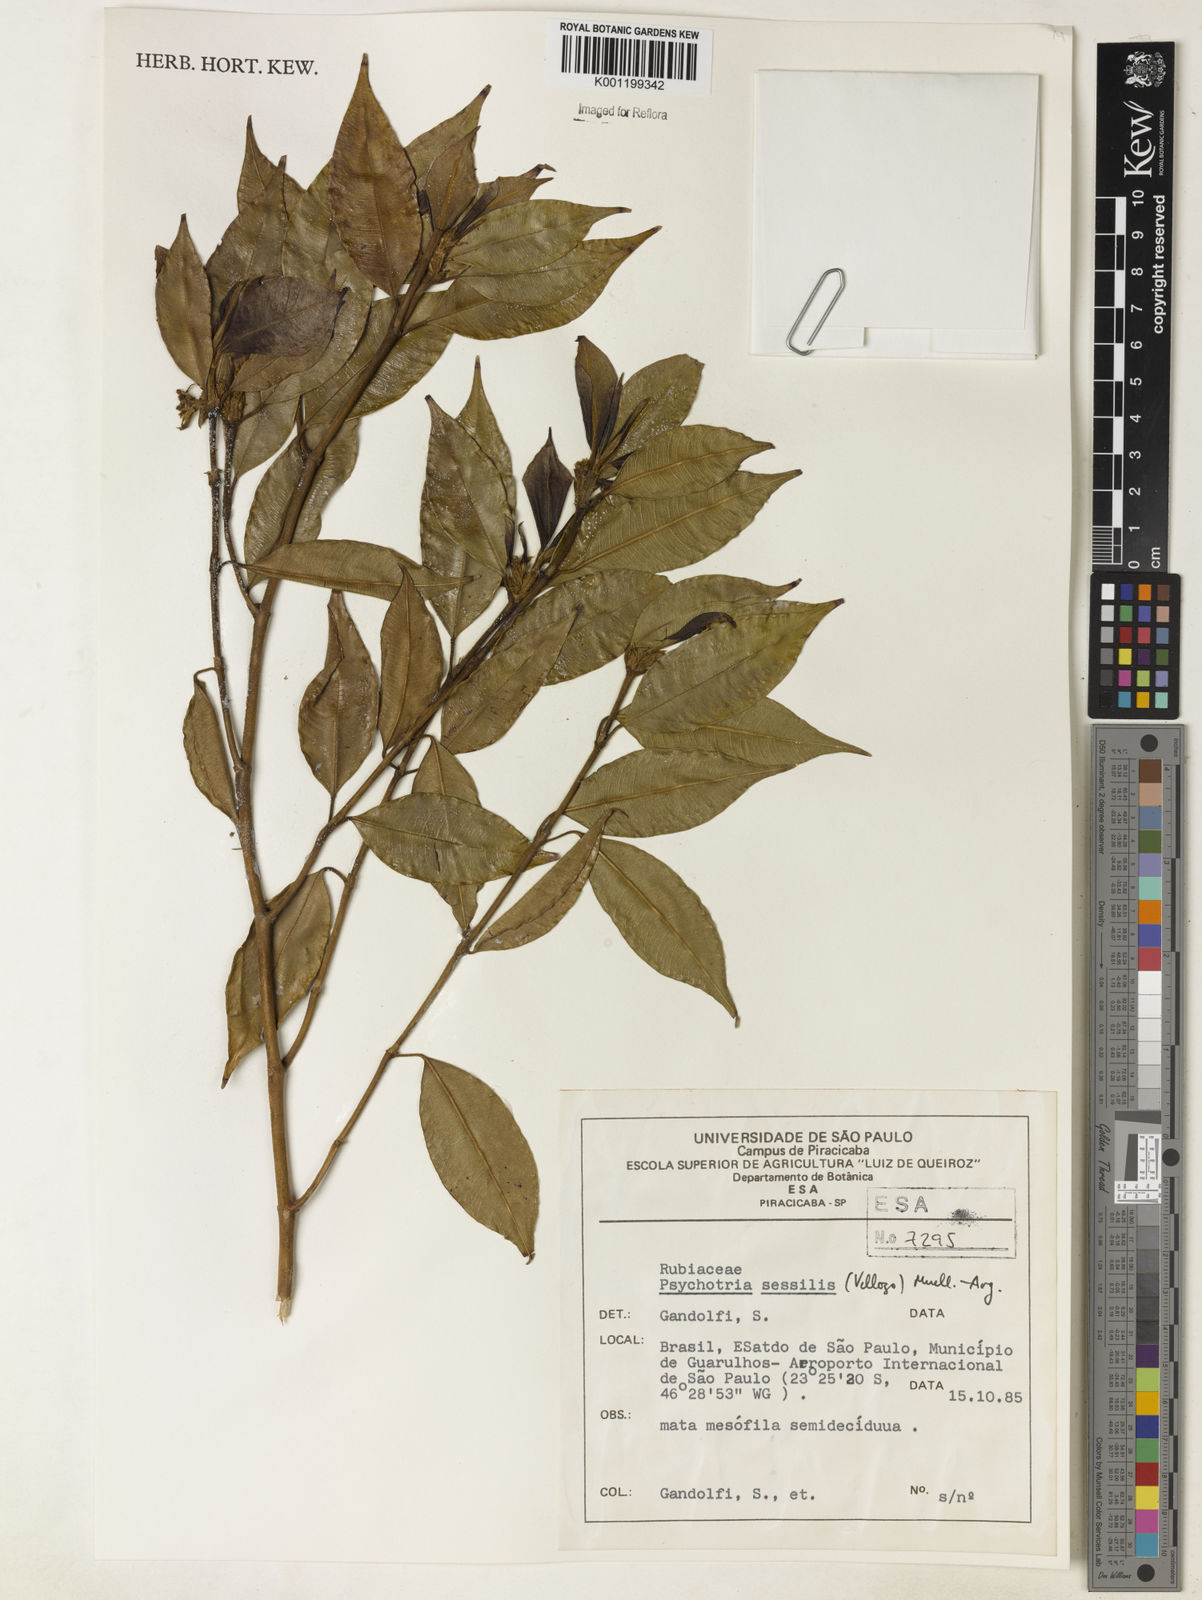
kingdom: Plantae
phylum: Tracheophyta
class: Magnoliopsida
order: Gentianales
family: Rubiaceae
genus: Rudgea
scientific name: Rudgea sessilis
